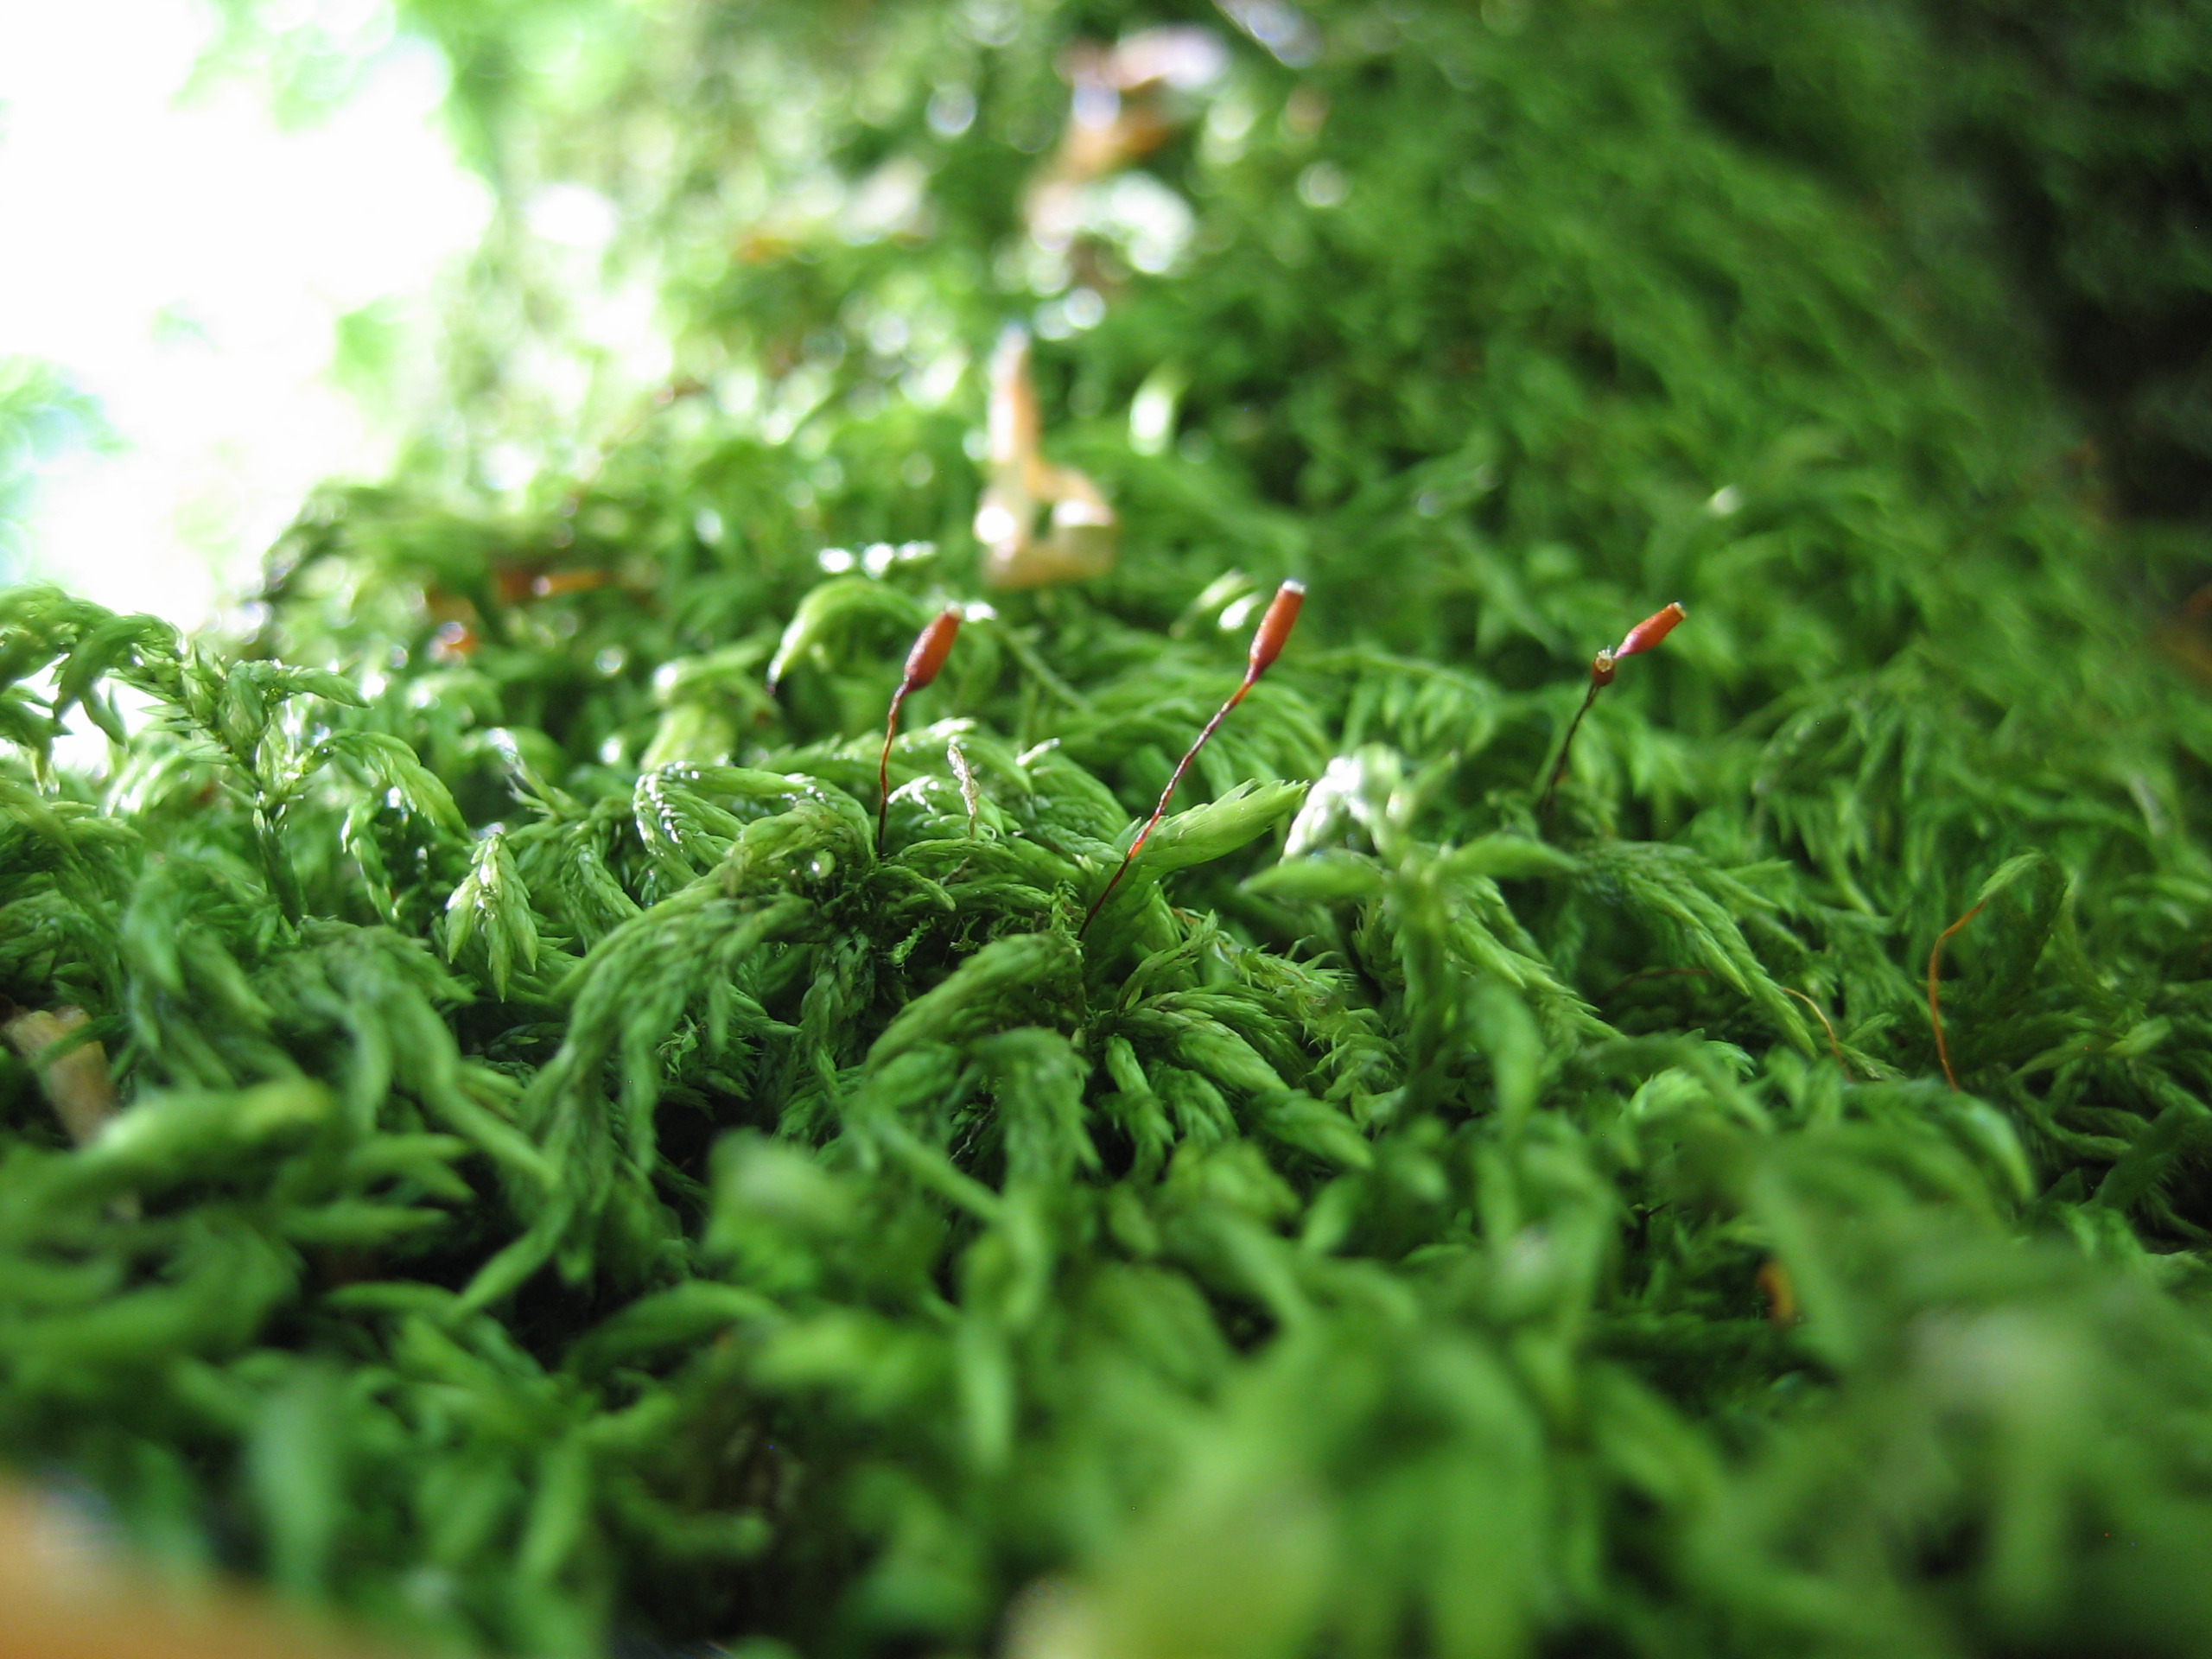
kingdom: Plantae
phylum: Bryophyta
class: Bryopsida
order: Hypnales
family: Lembophyllaceae
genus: Isothecium
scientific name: Isothecium alopecuroides
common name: Stor stammemos
